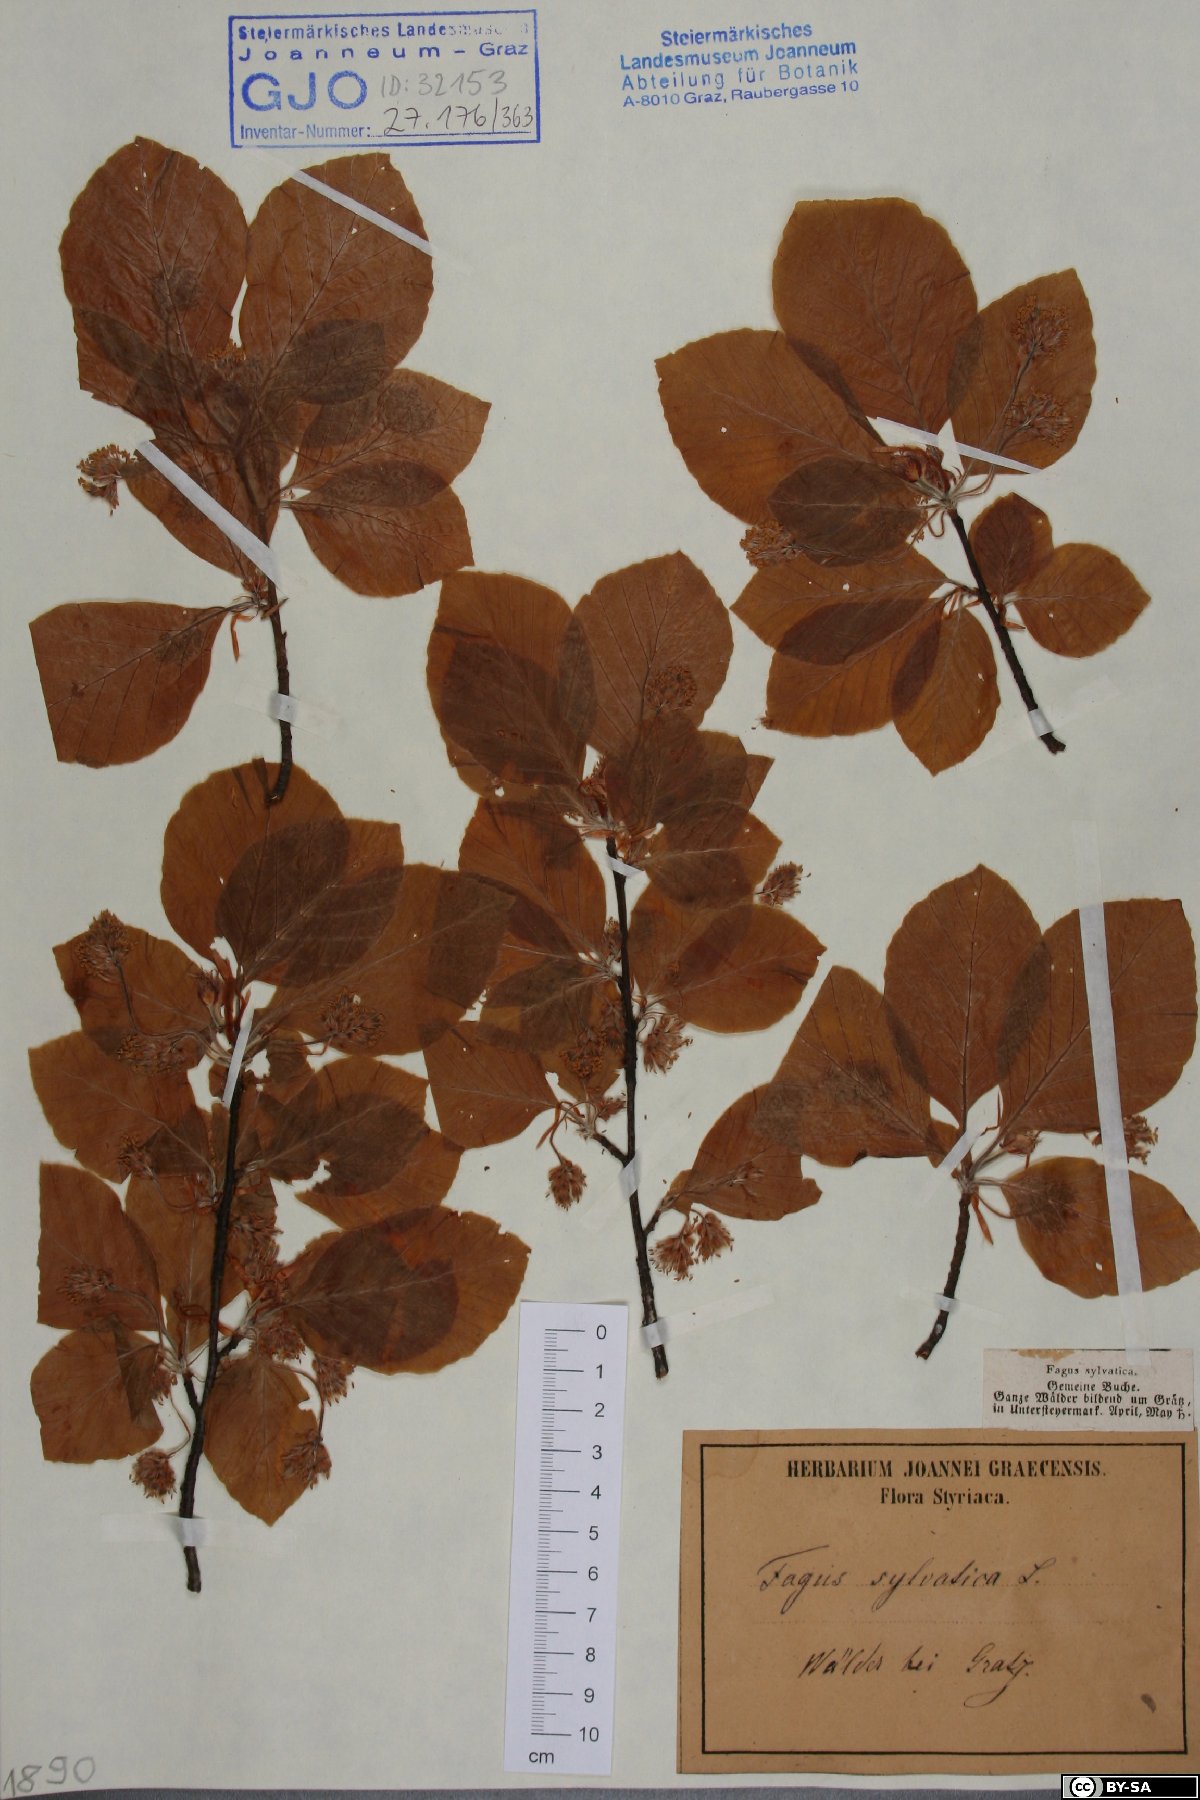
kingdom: Plantae
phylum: Tracheophyta
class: Magnoliopsida
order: Fagales
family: Fagaceae
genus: Fagus
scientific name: Fagus sylvatica
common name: Beech
